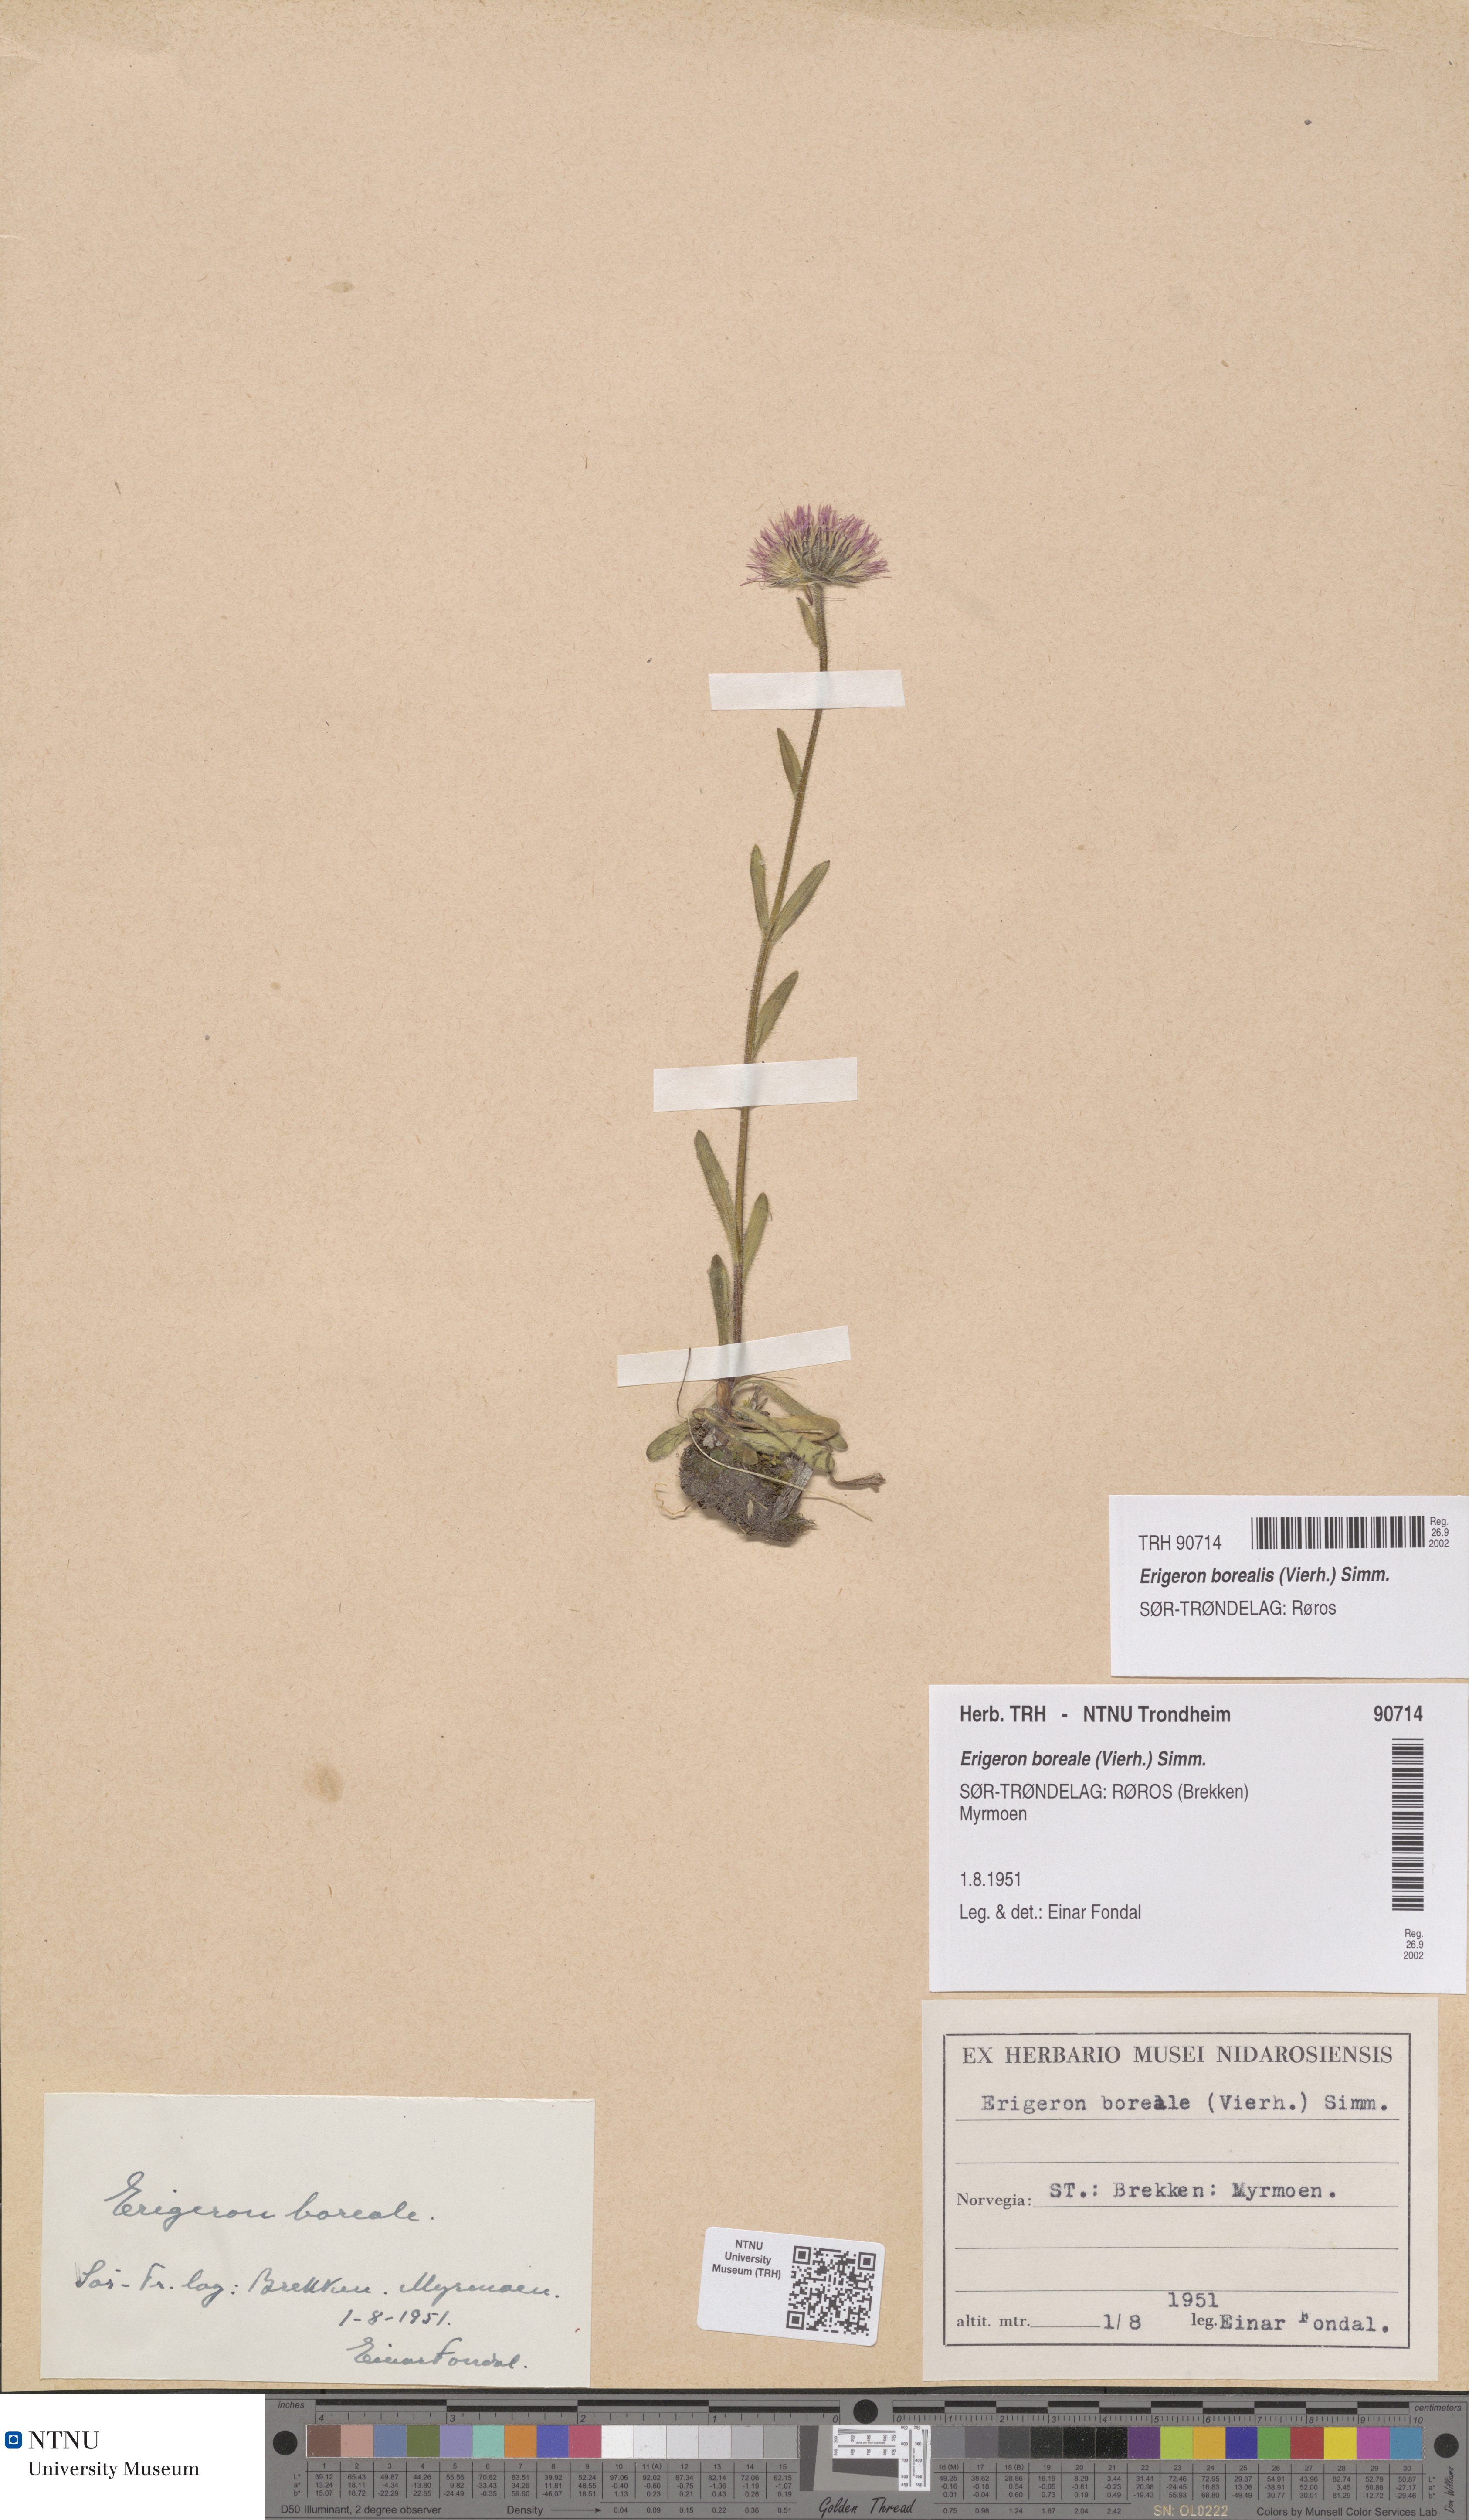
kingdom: Plantae
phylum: Tracheophyta
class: Magnoliopsida
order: Asterales
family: Asteraceae
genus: Erigeron
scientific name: Erigeron borealis
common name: Alpine fleabane
